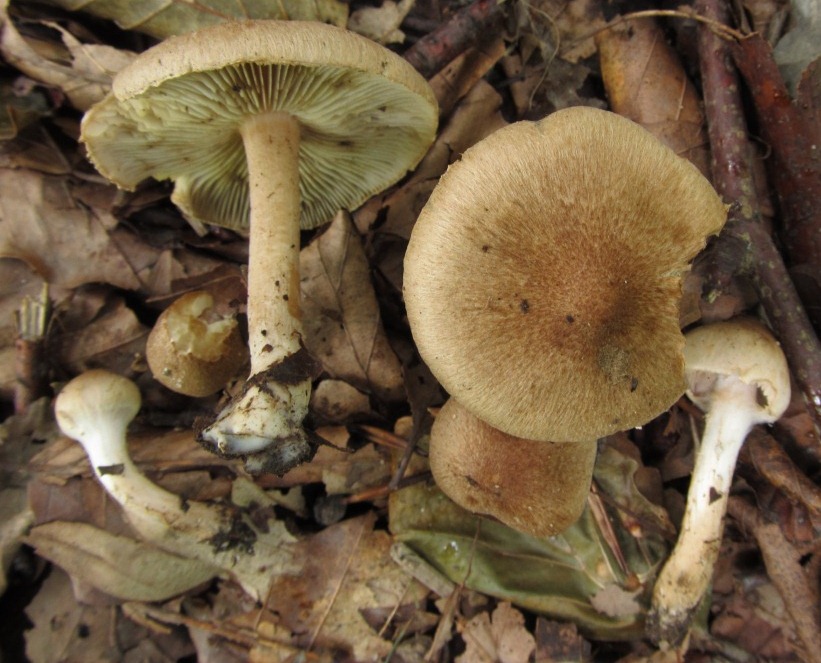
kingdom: Fungi
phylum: Basidiomycota
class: Agaricomycetes
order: Agaricales
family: Inocybaceae
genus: Inocybe
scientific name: Inocybe
